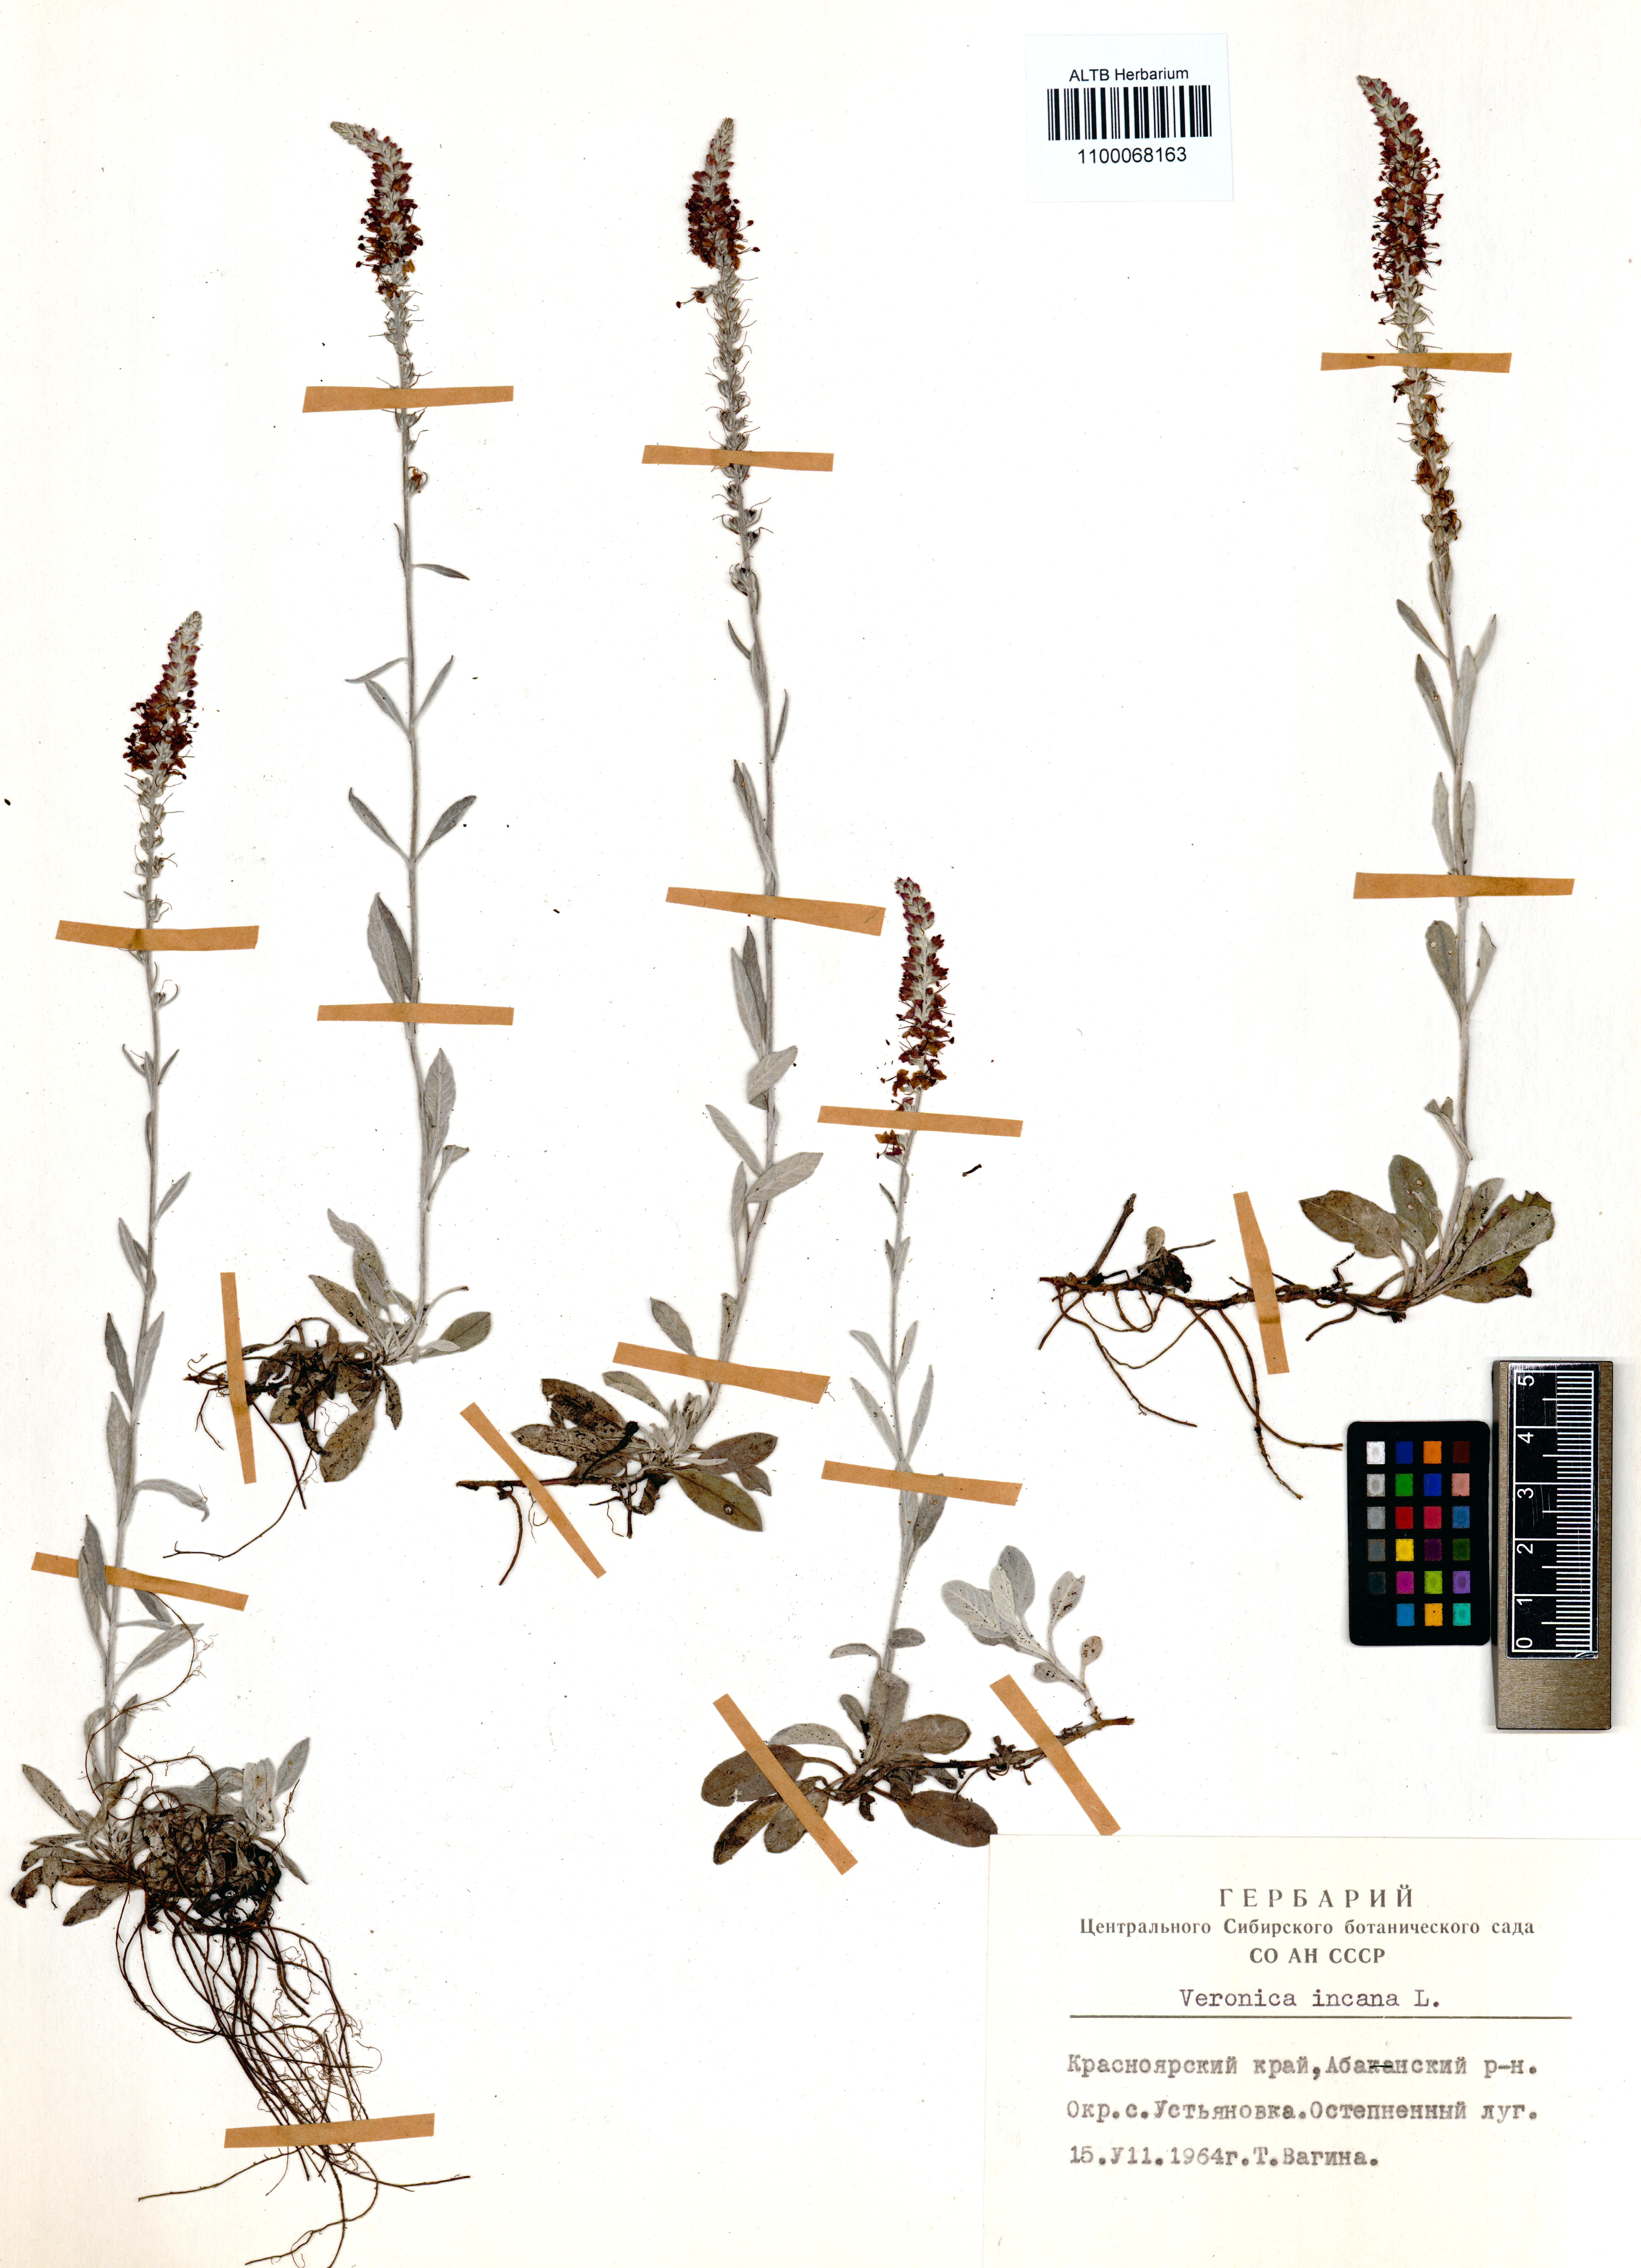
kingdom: Plantae
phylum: Tracheophyta
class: Magnoliopsida
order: Lamiales
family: Plantaginaceae
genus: Veronica
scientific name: Veronica incana
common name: Silver speedwell
